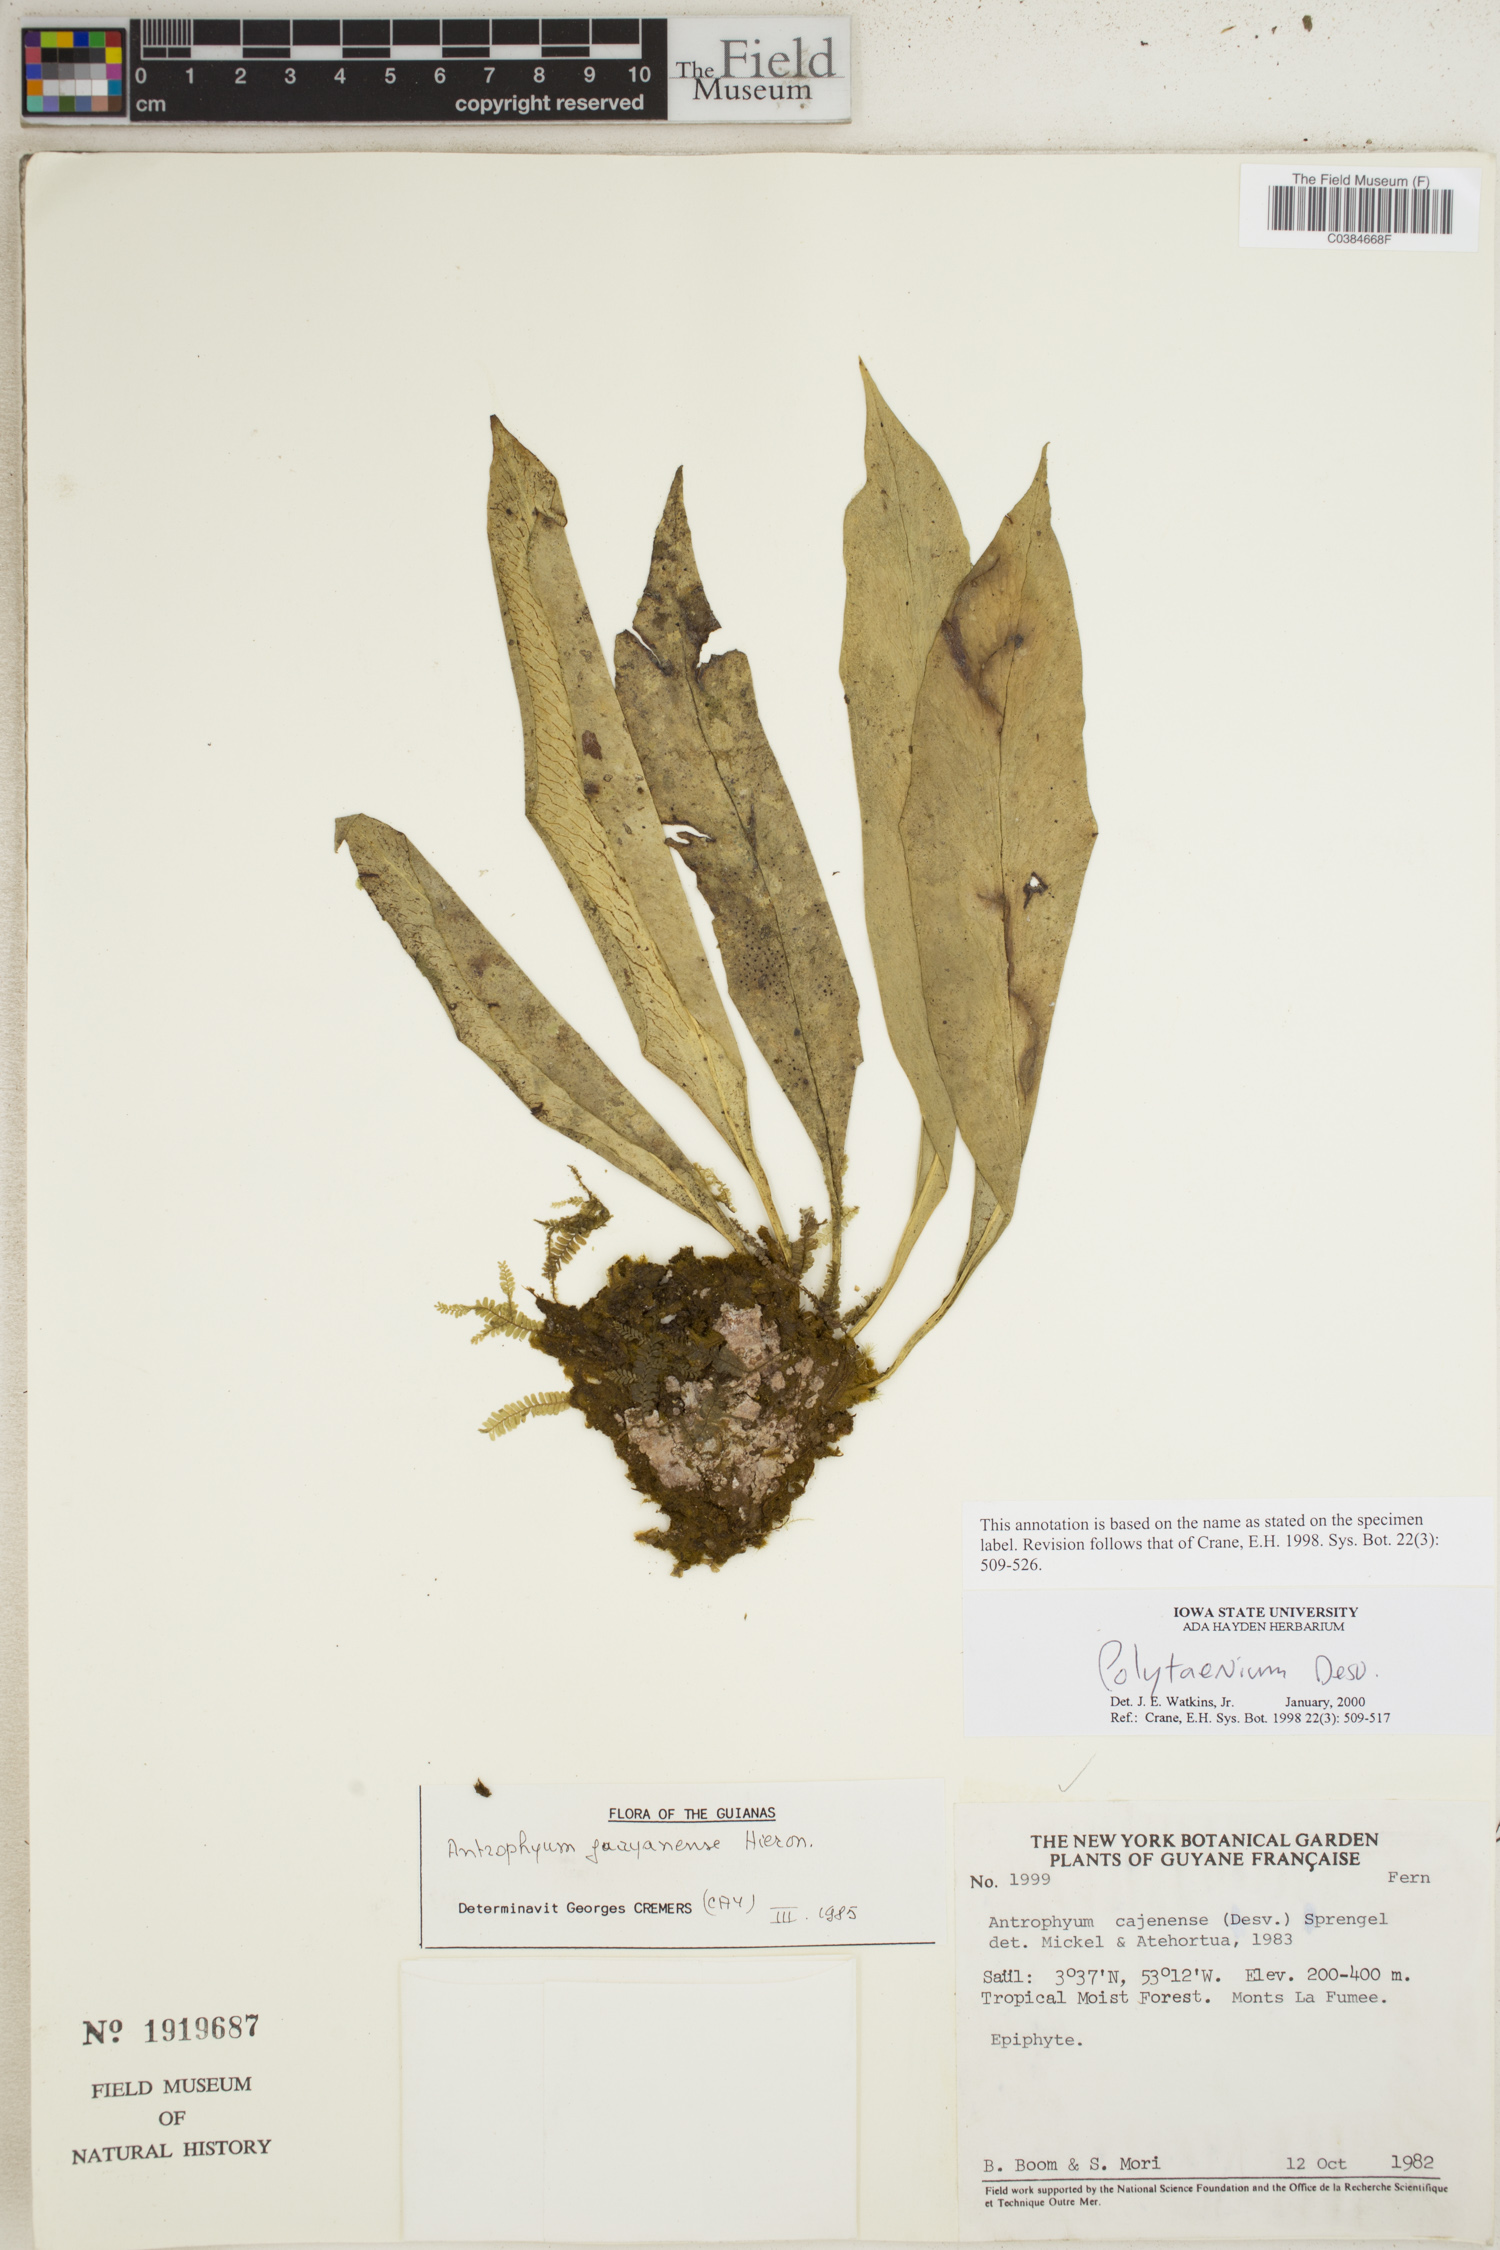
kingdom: Plantae
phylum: Tracheophyta
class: Polypodiopsida
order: Polypodiales
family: Pteridaceae
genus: Polytaenium
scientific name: Polytaenium
